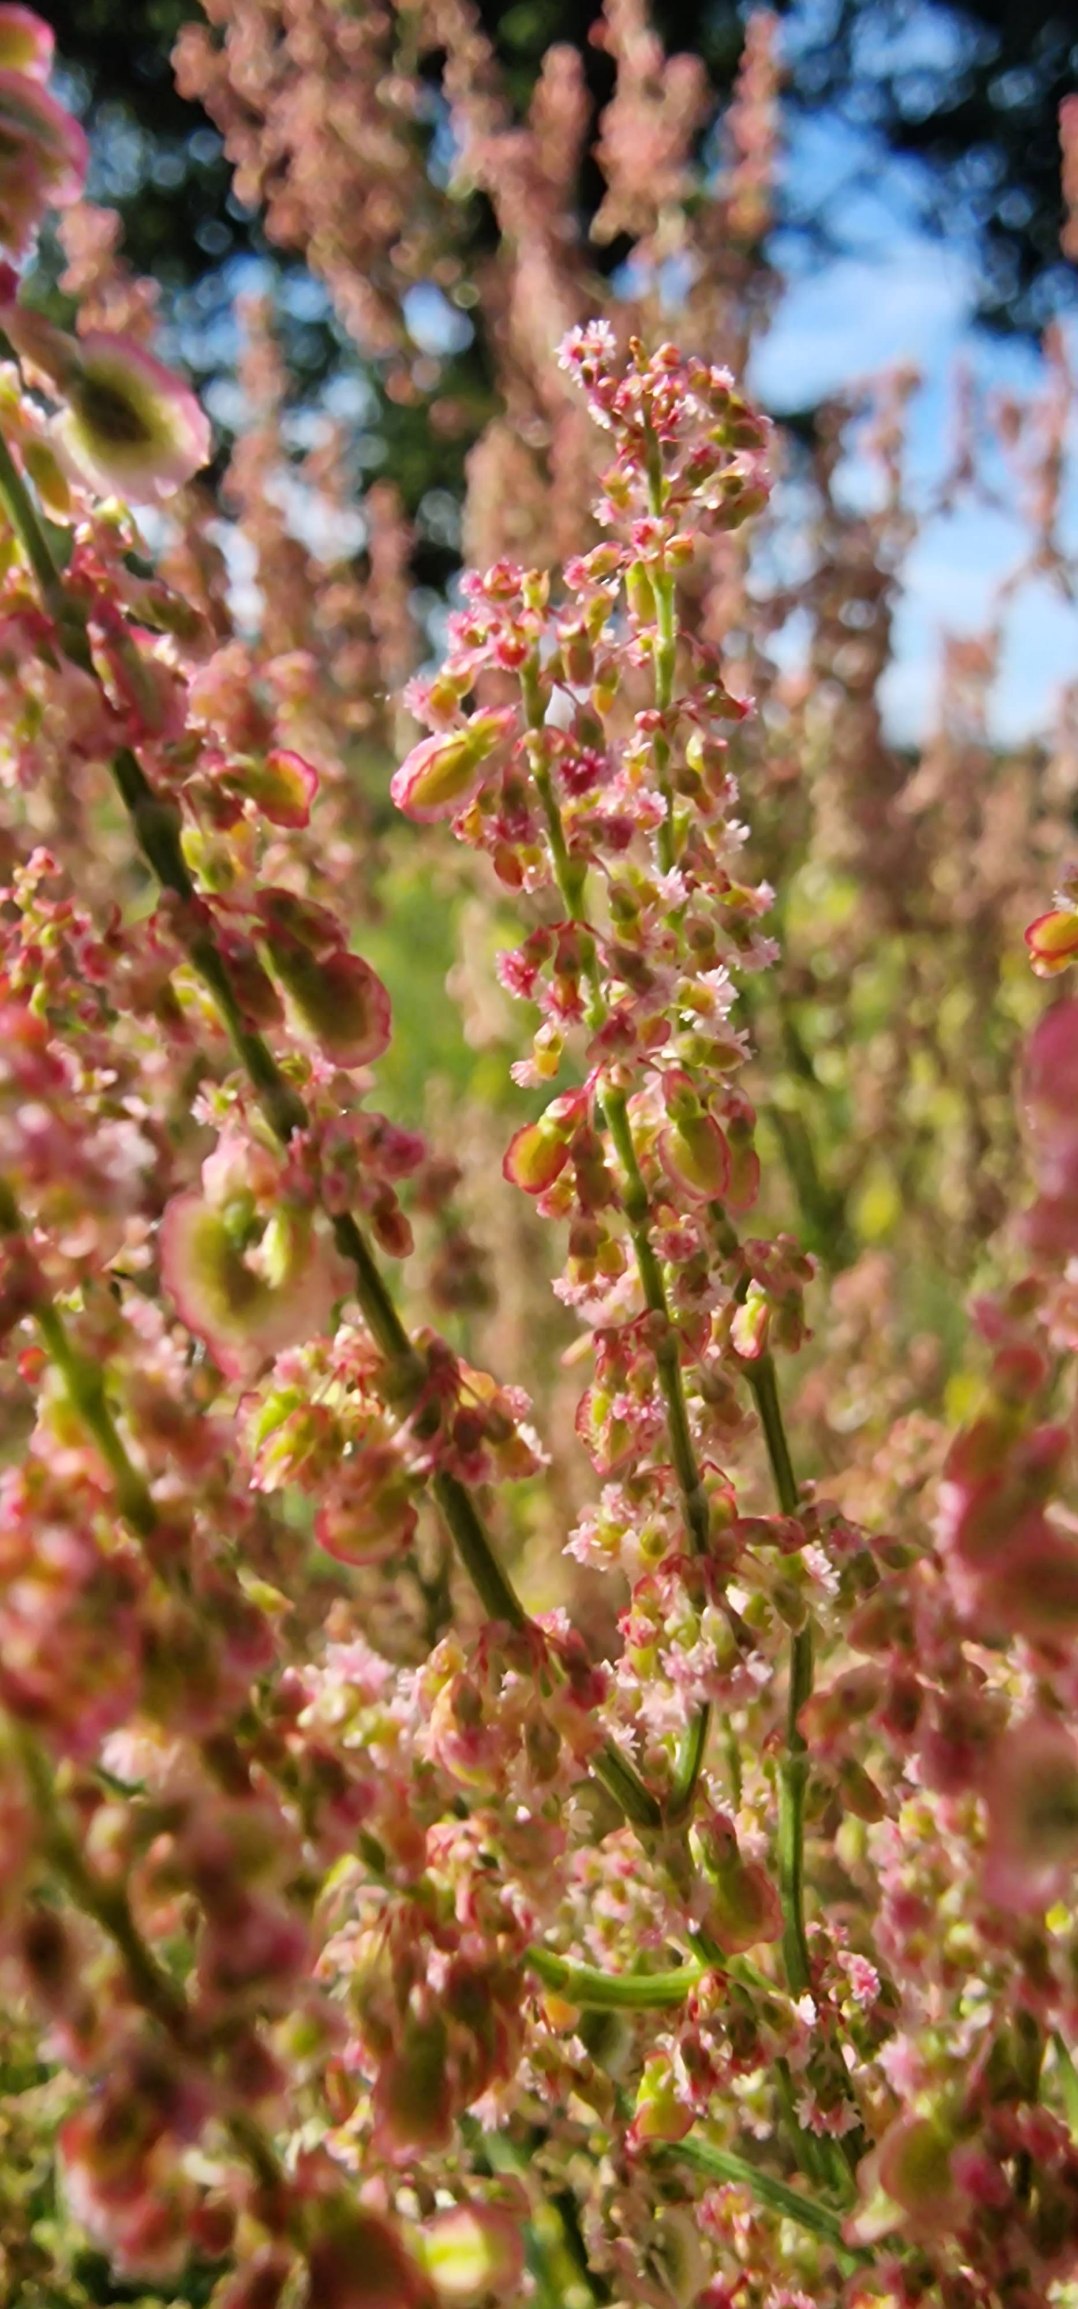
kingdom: Plantae
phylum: Tracheophyta
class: Magnoliopsida
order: Caryophyllales
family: Polygonaceae
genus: Rumex
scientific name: Rumex thyrsiflorus
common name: Dusk-syre
